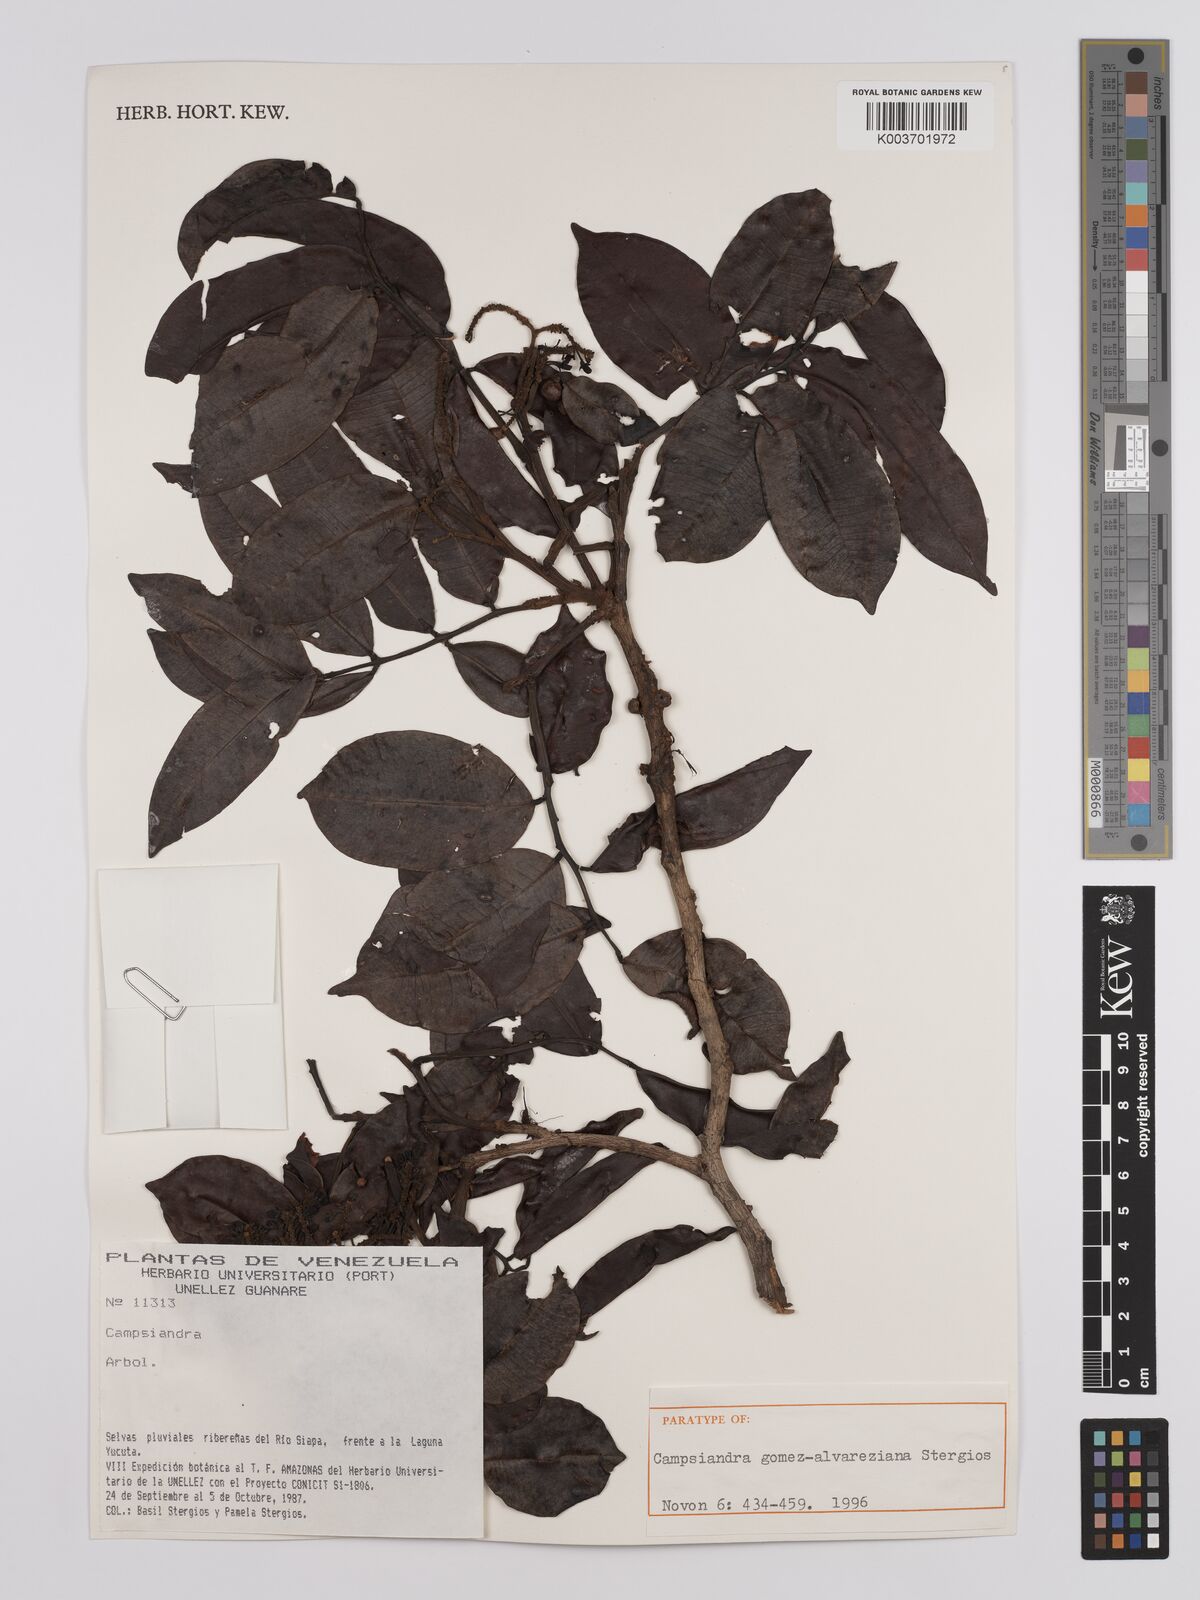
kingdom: Plantae
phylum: Tracheophyta
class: Magnoliopsida
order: Fabales
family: Fabaceae
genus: Campsiandra
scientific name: Campsiandra gomez-alvareziana
